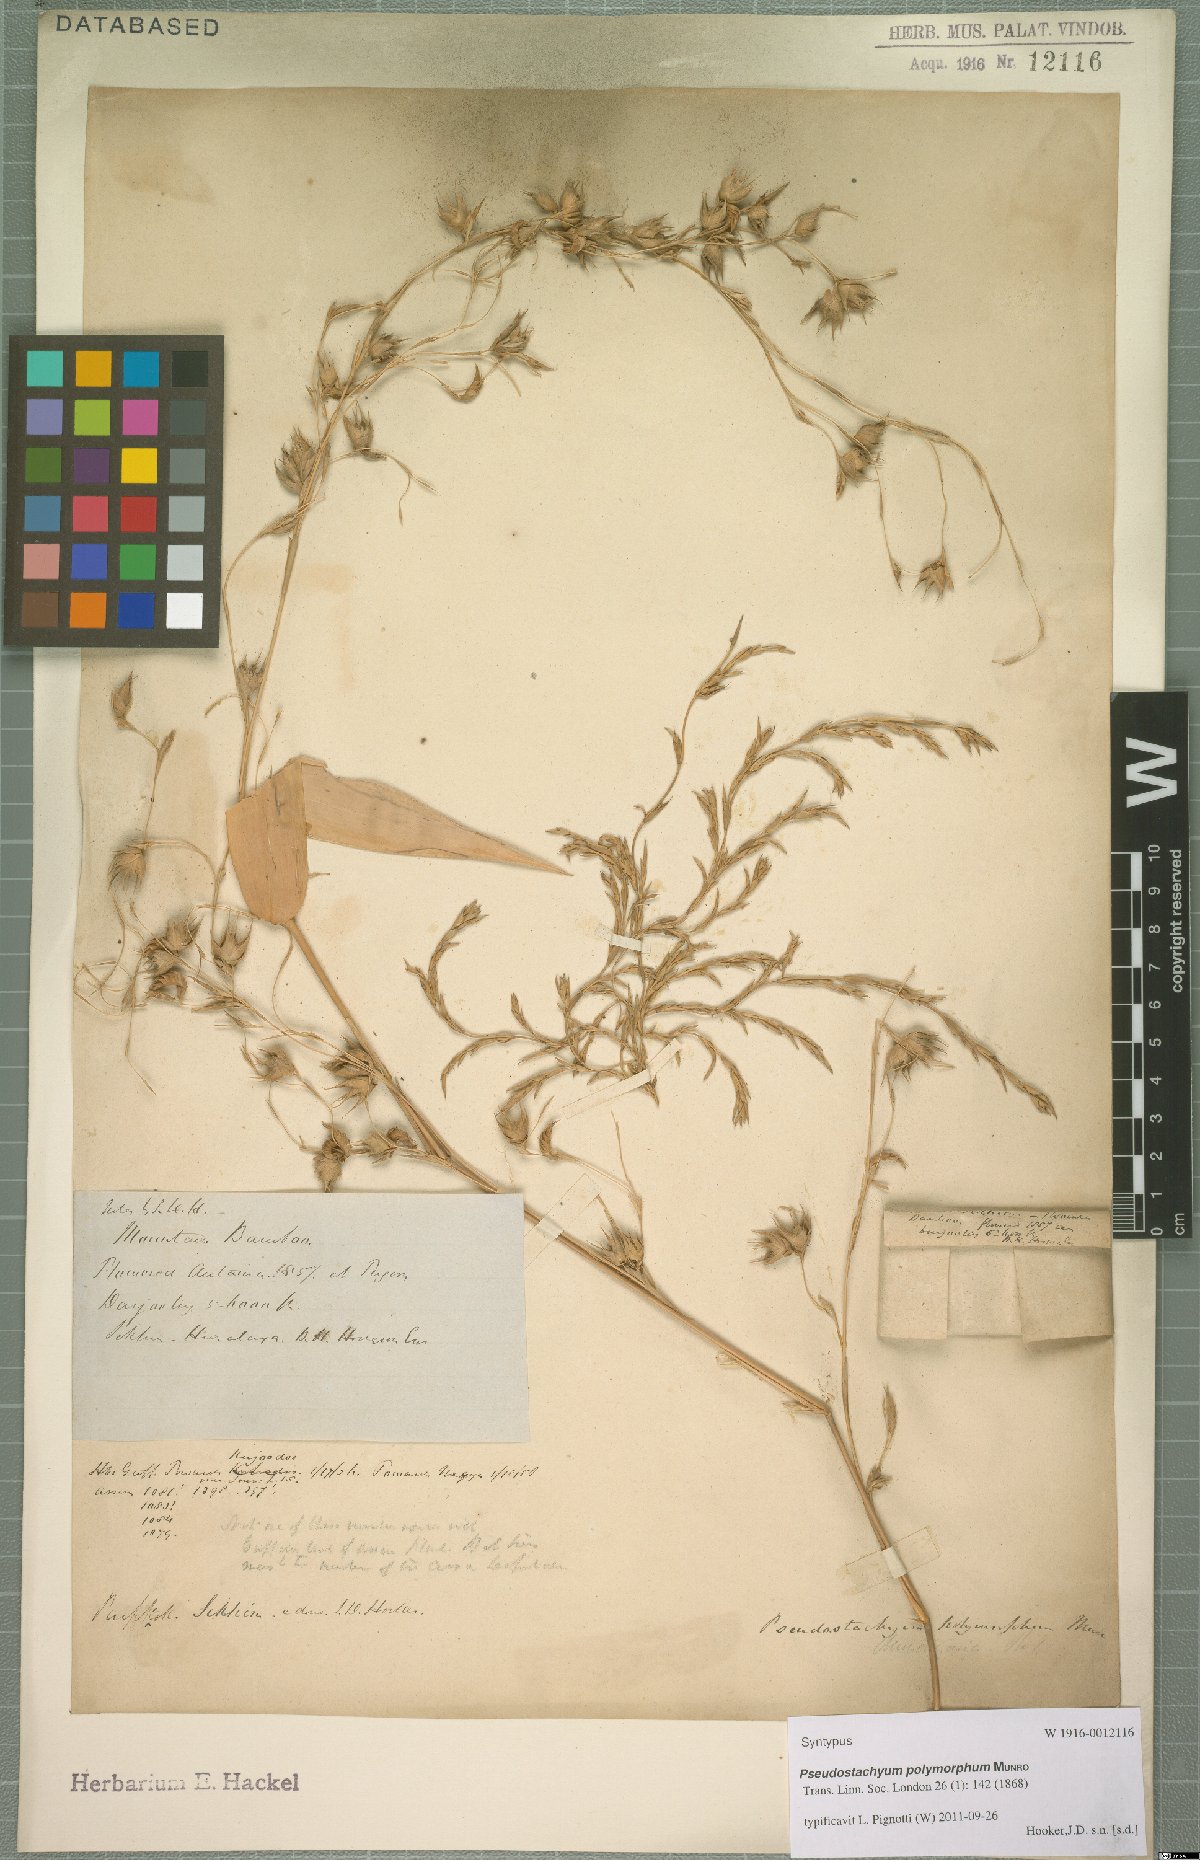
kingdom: Plantae
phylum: Tracheophyta
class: Liliopsida
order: Poales
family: Poaceae
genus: Pseudostachyum
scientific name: Pseudostachyum polymorphum
